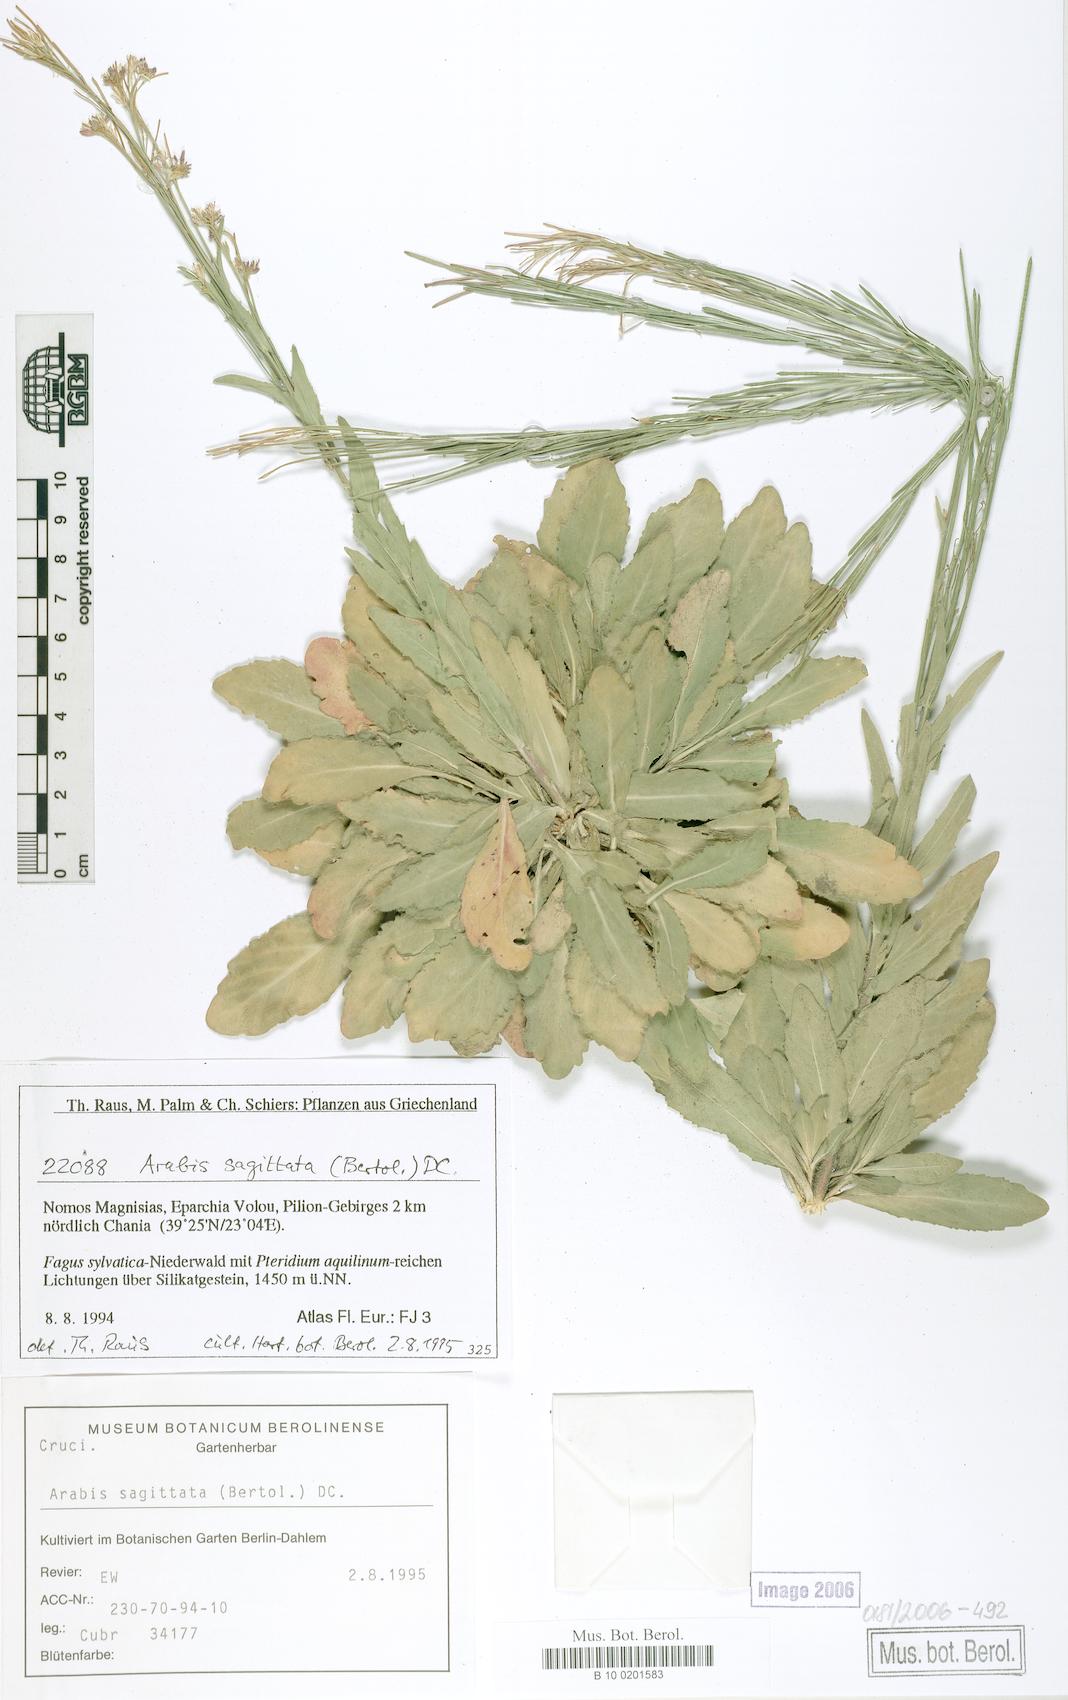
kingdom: Plantae
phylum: Tracheophyta
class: Magnoliopsida
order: Brassicales
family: Brassicaceae
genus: Arabis
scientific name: Arabis sagittata
